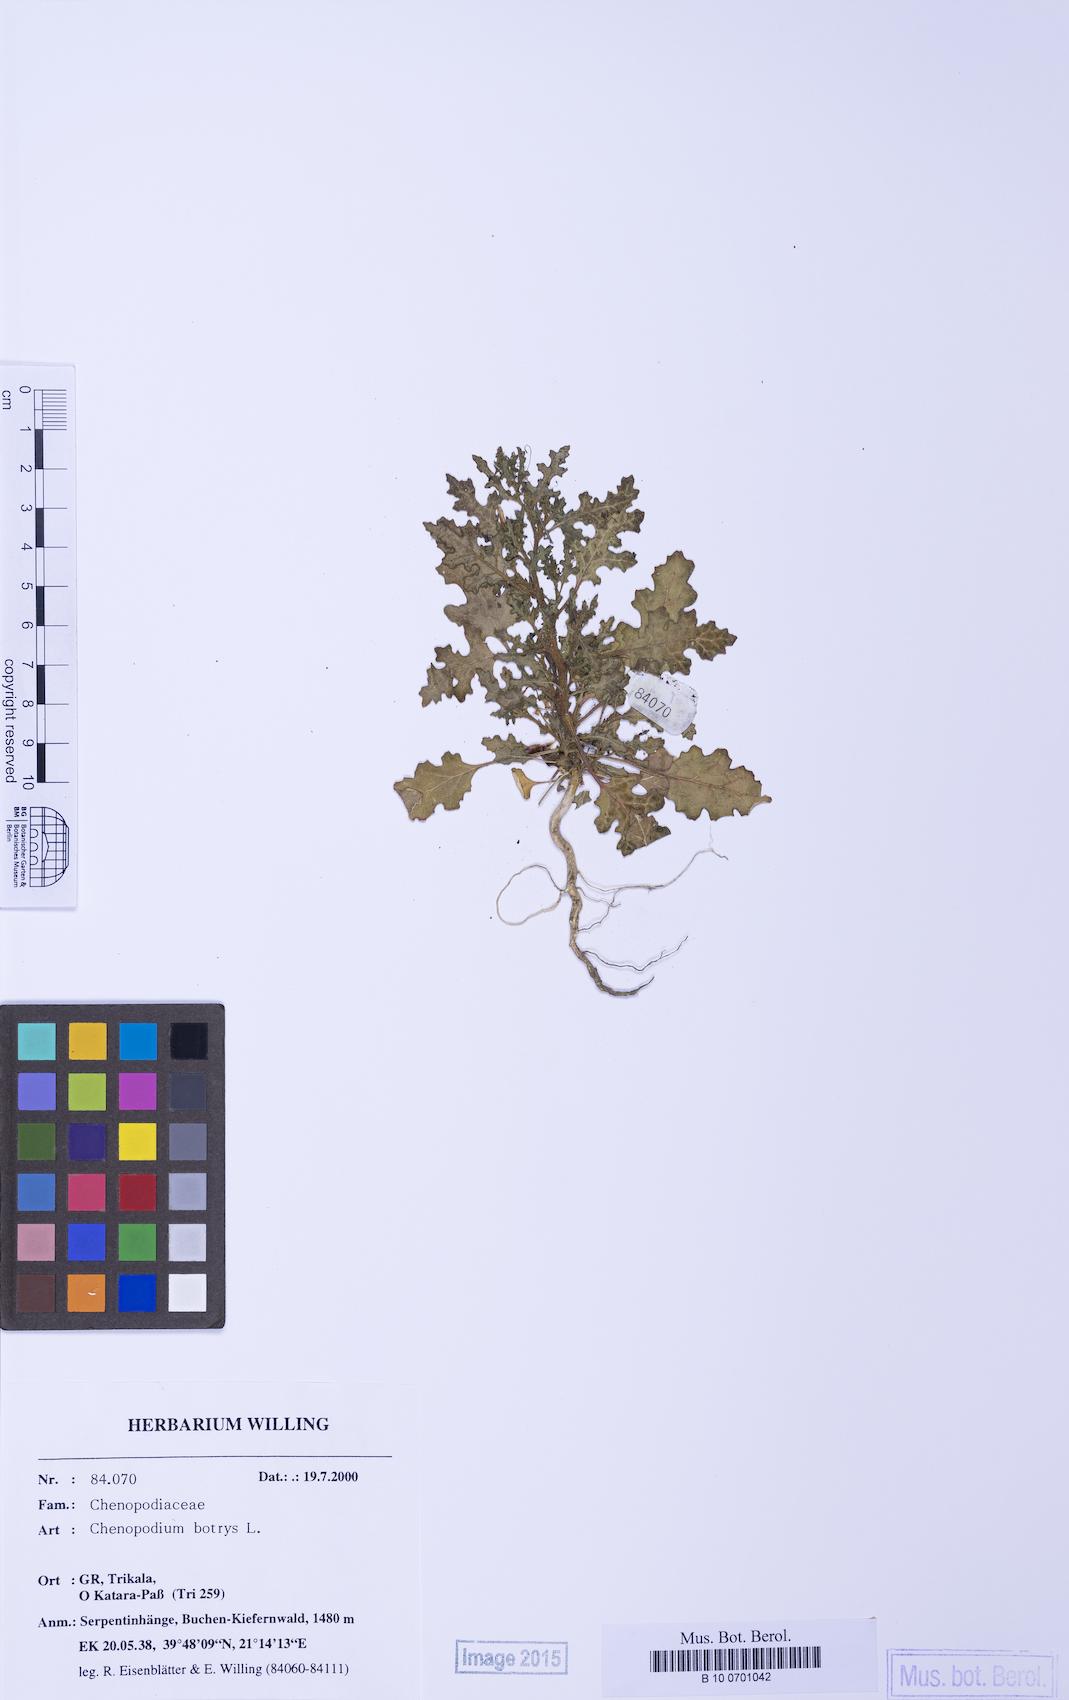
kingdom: Plantae
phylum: Tracheophyta
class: Magnoliopsida
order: Caryophyllales
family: Amaranthaceae
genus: Dysphania
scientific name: Dysphania botrys
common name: Feather-geranium
